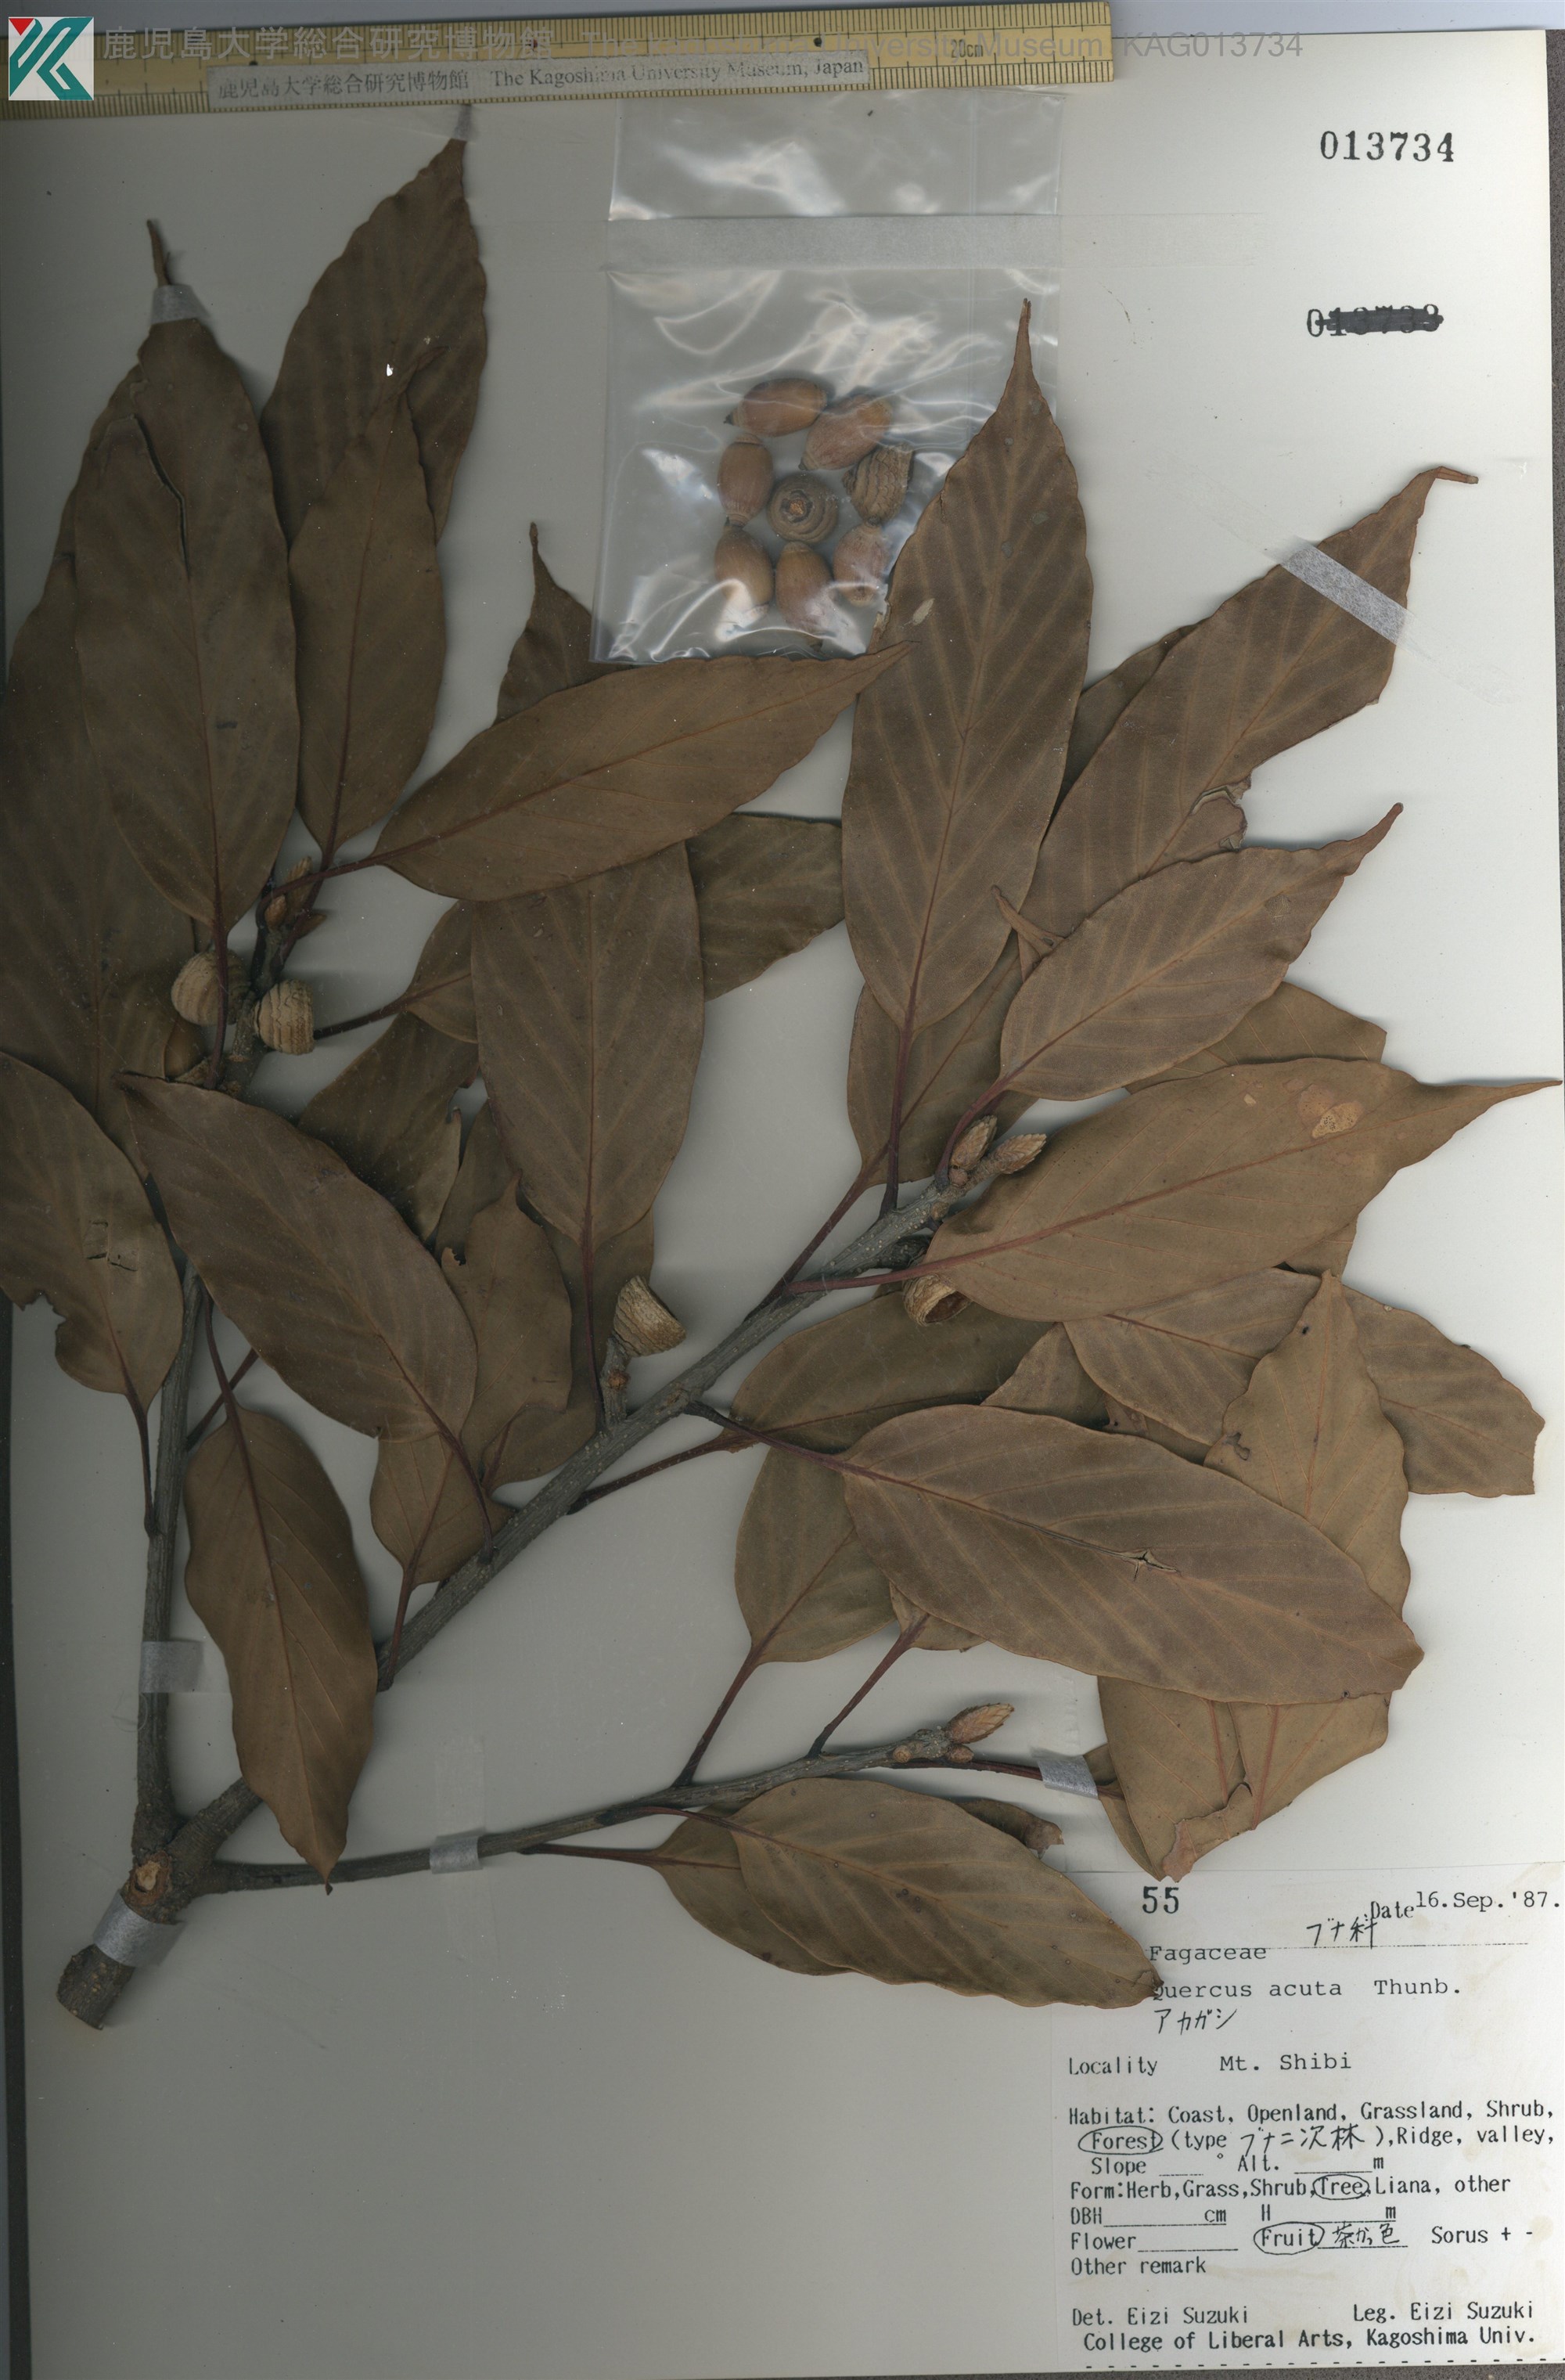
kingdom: Plantae
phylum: Tracheophyta
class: Magnoliopsida
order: Fagales
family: Fagaceae
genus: Quercus
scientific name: Quercus acuta
